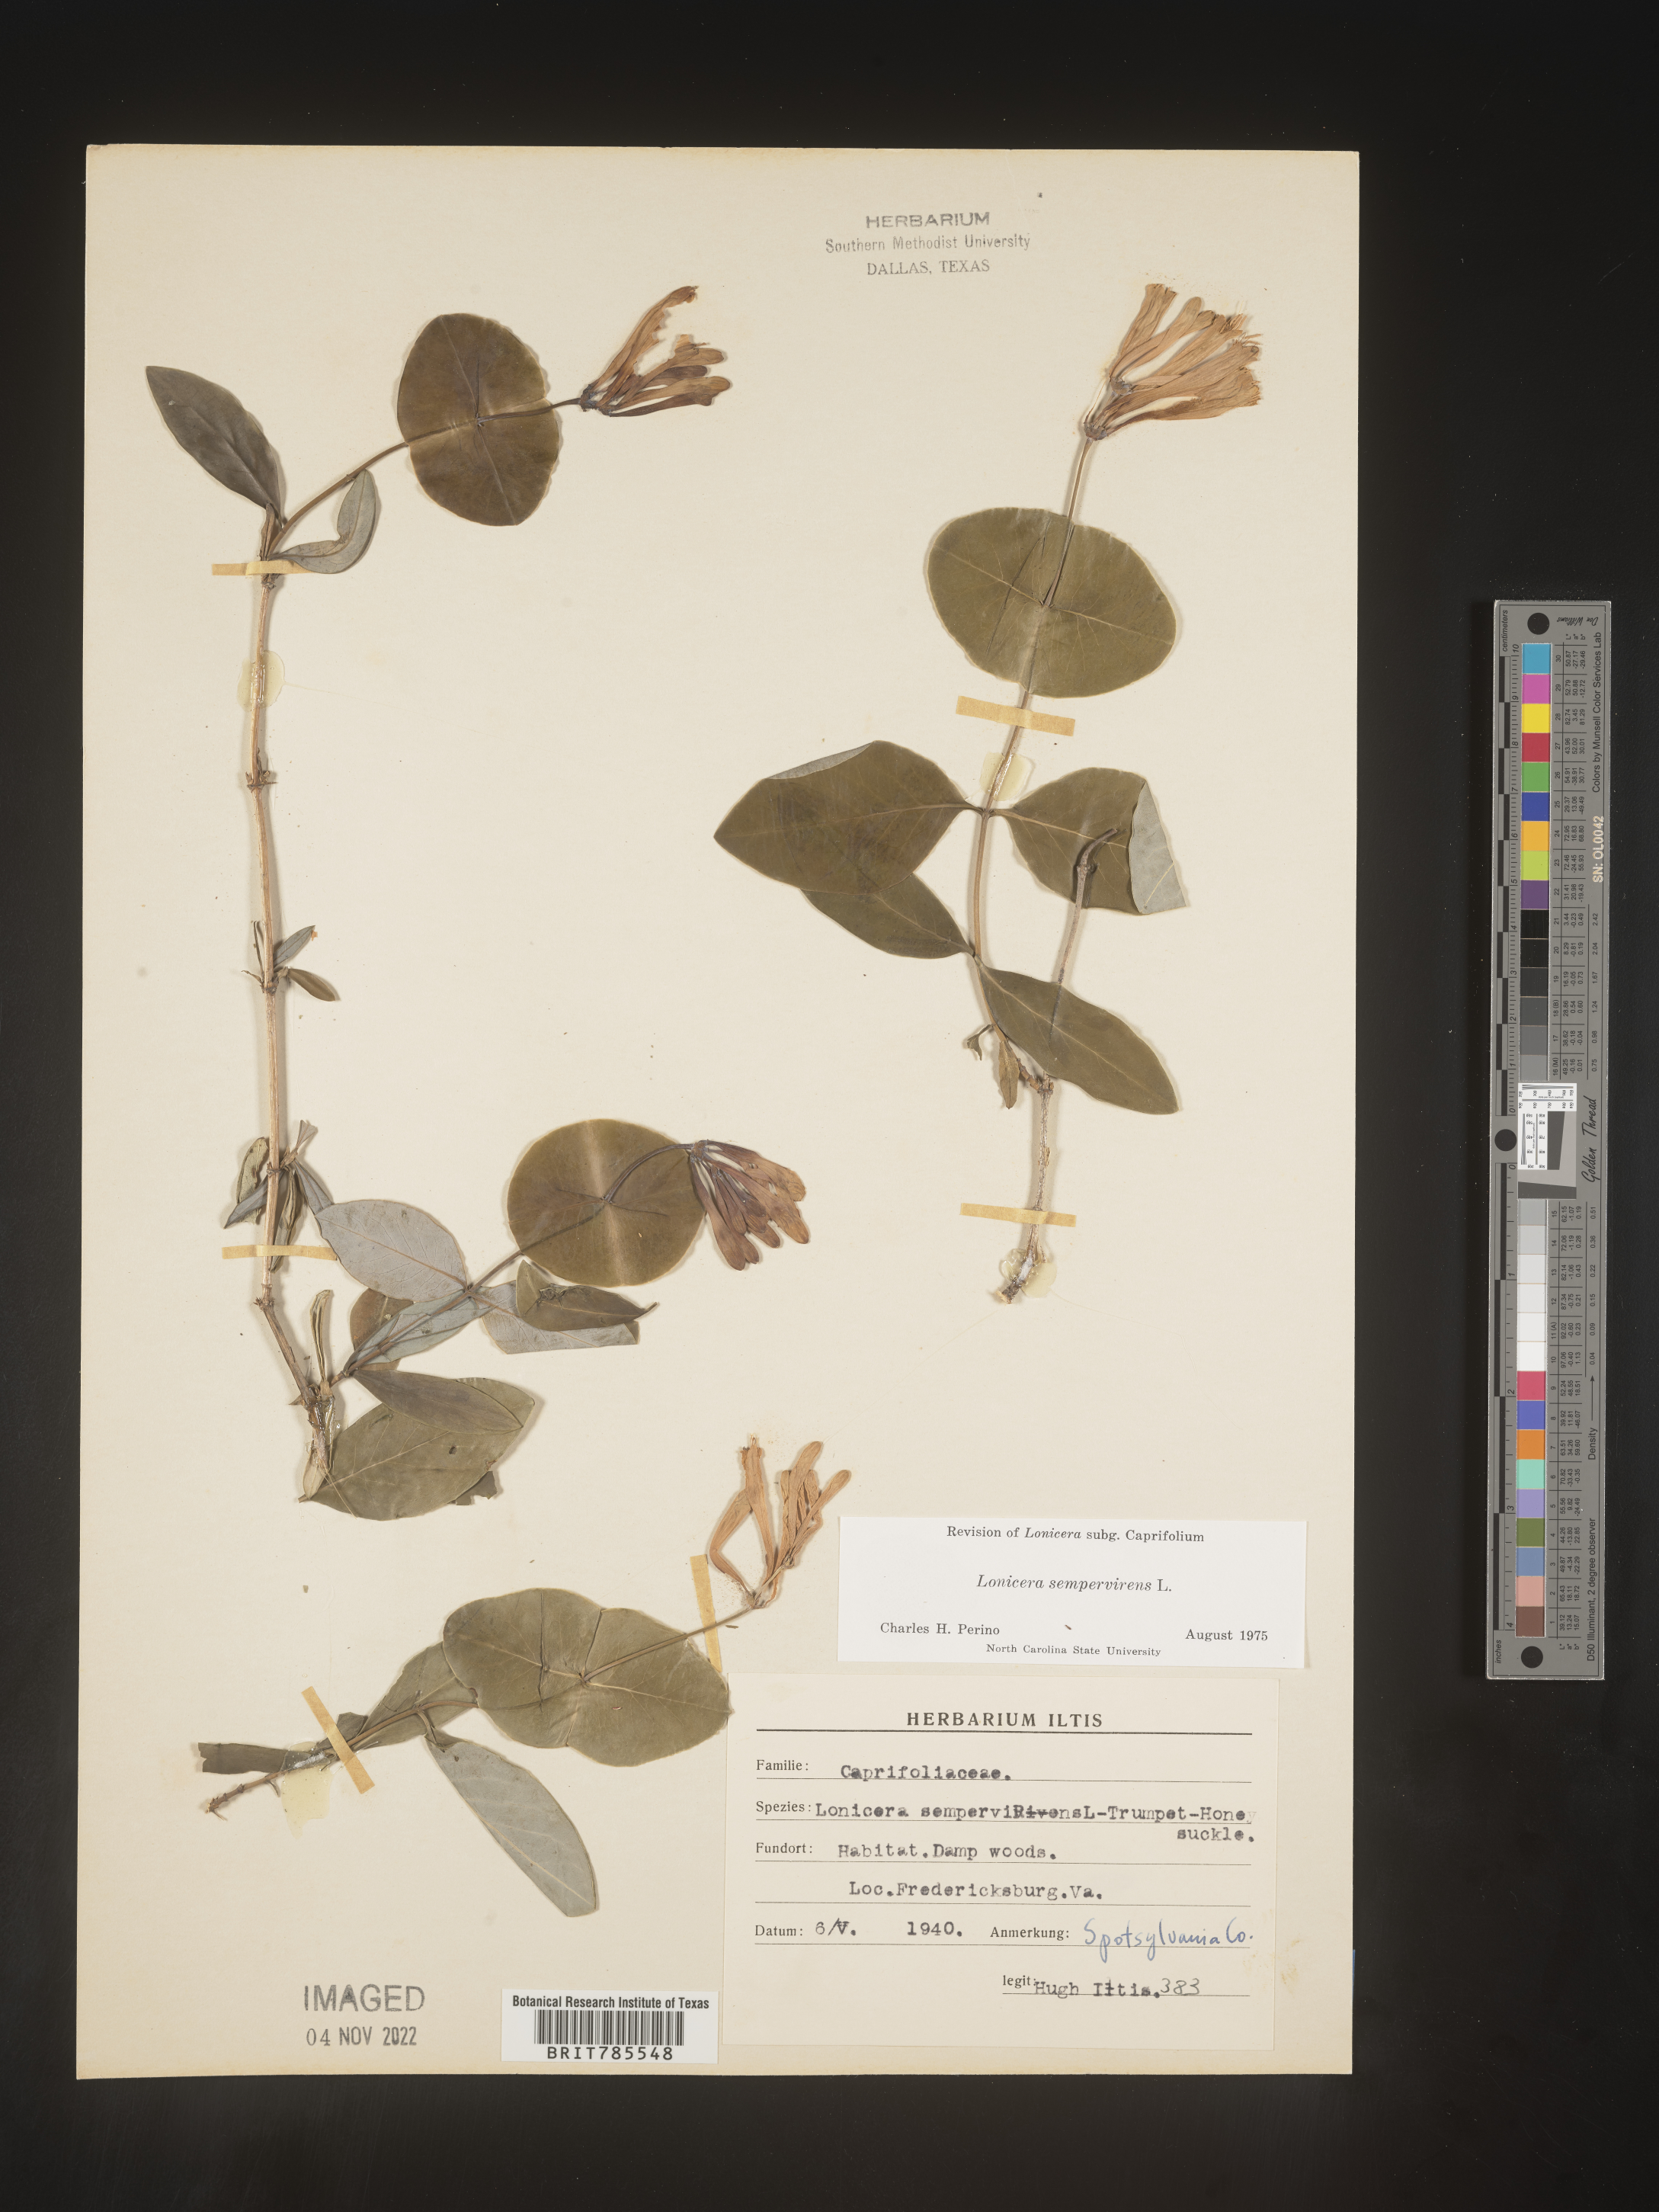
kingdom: Plantae
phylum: Tracheophyta
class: Magnoliopsida
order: Dipsacales
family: Caprifoliaceae
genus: Lonicera
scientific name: Lonicera sempervirens
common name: Coral honeysuckle
